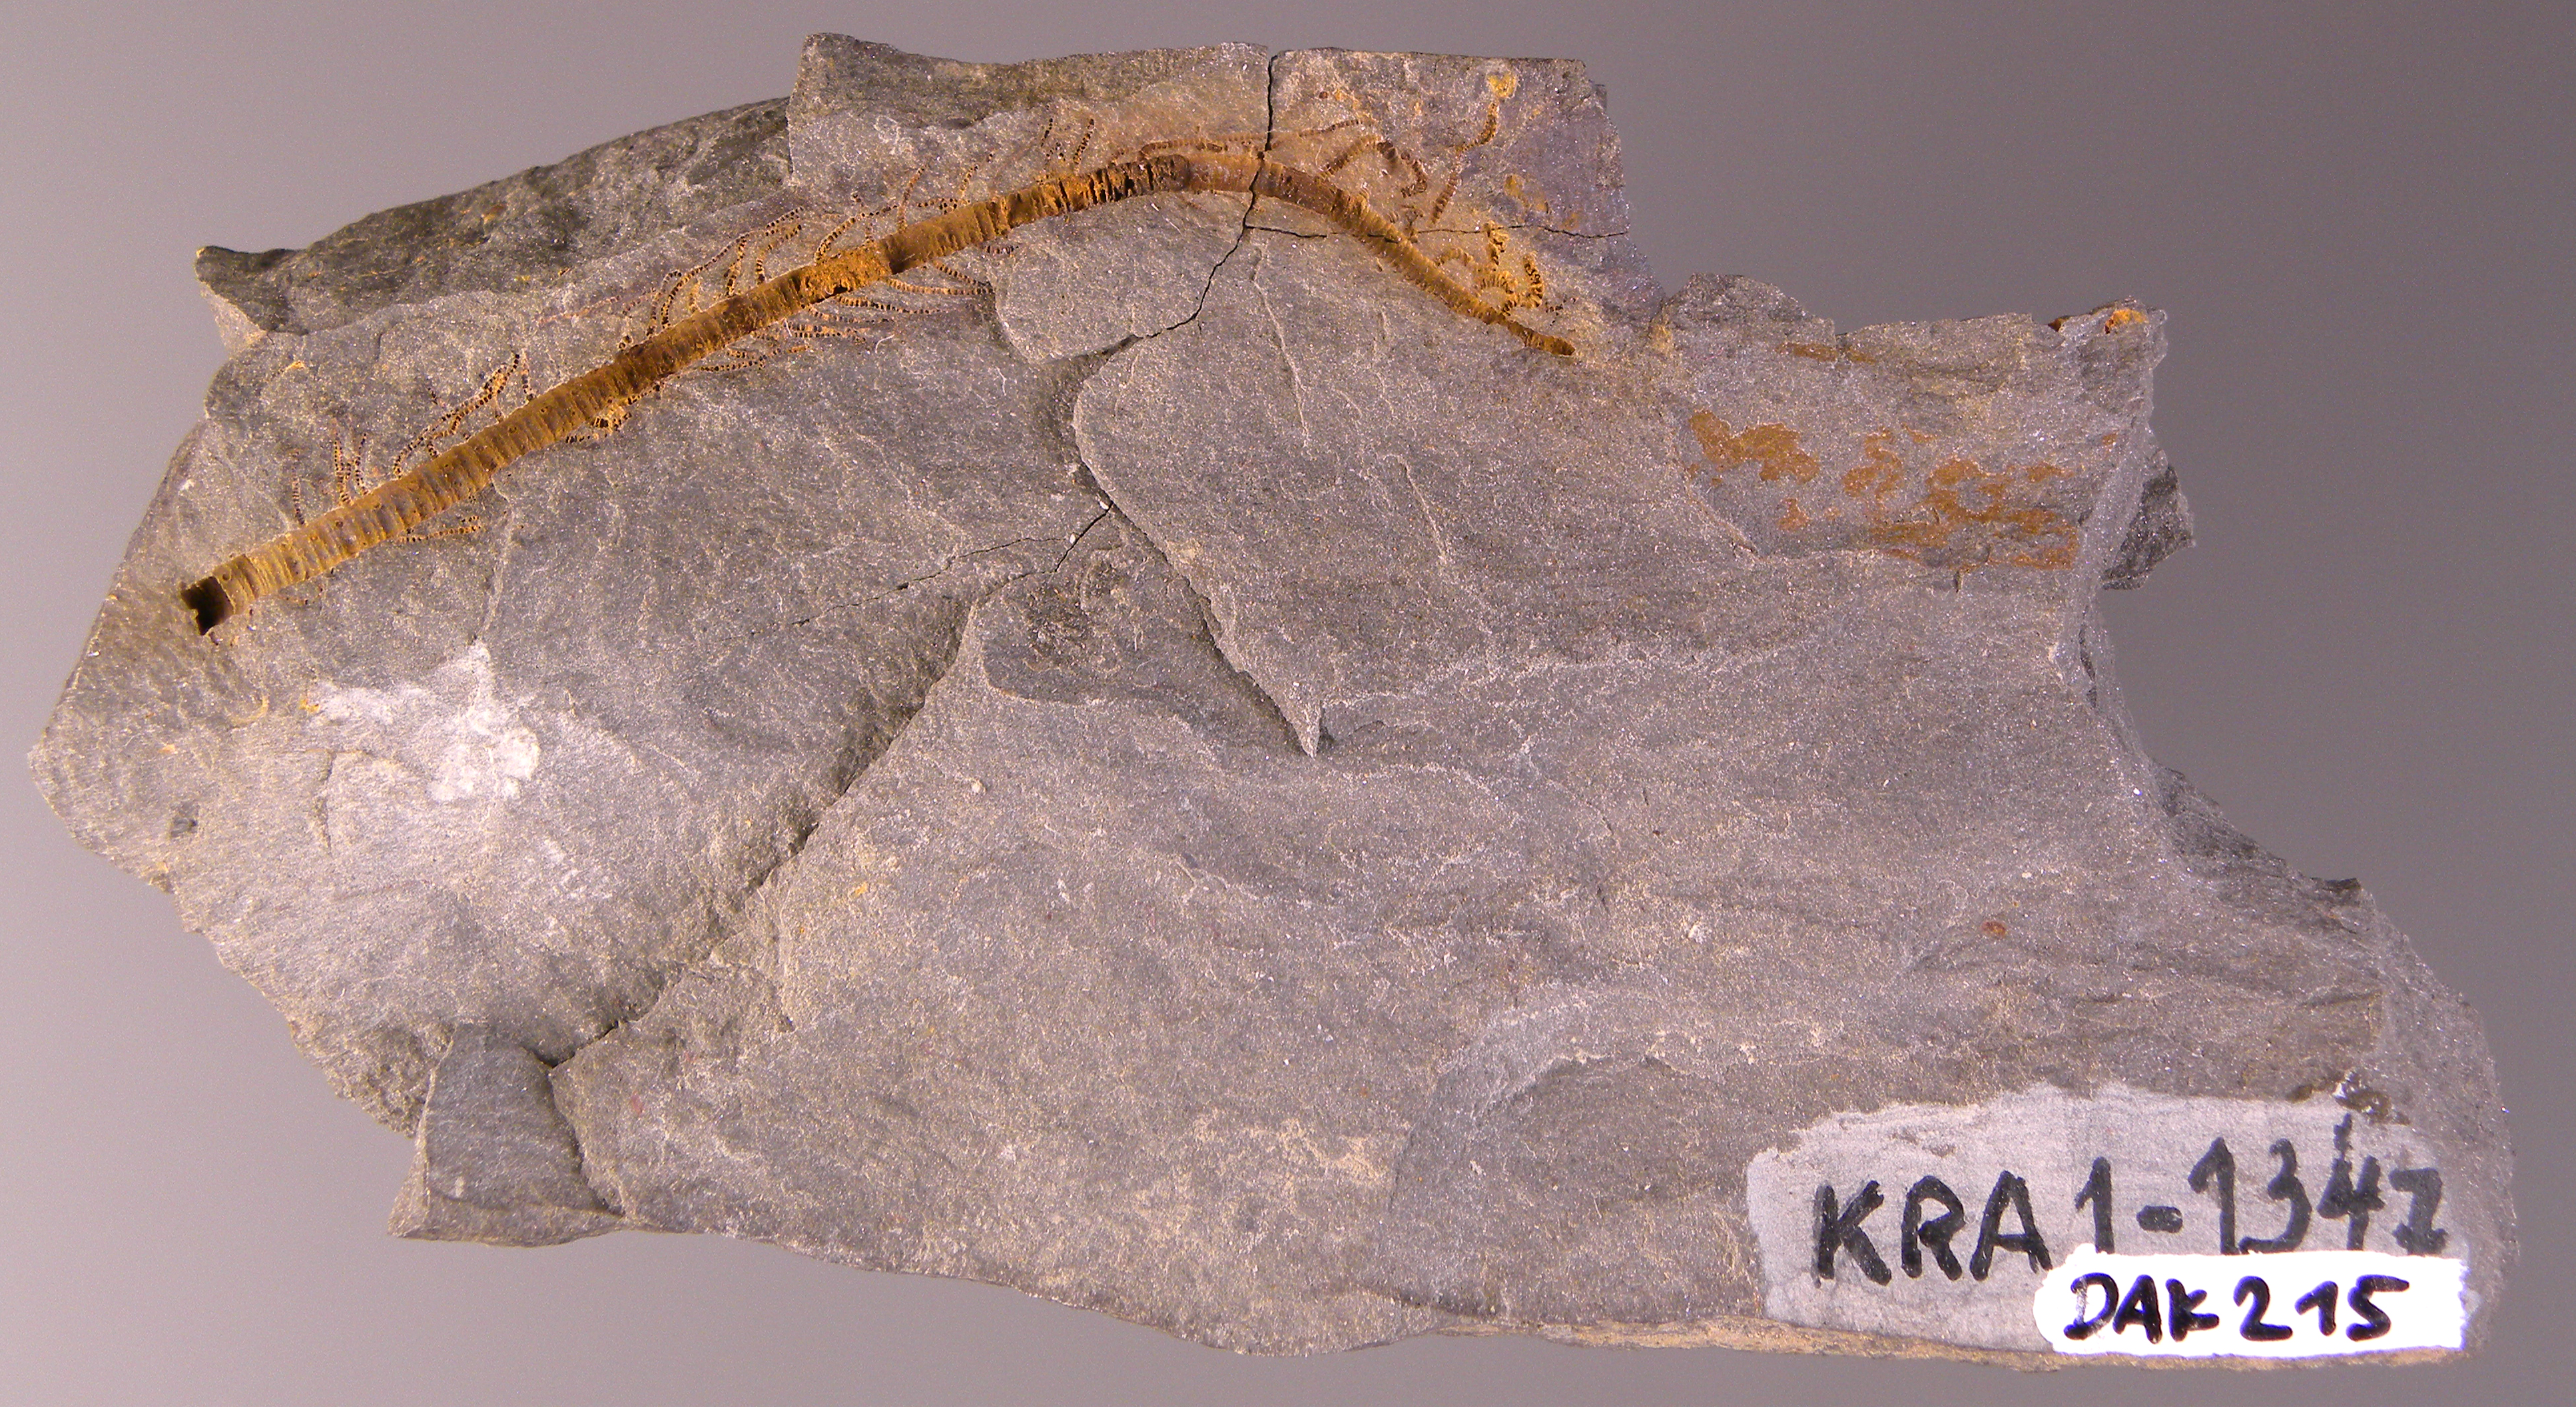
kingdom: Animalia
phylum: Echinodermata
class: Crinoidea
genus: Facetocrinus
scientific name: Facetocrinus
